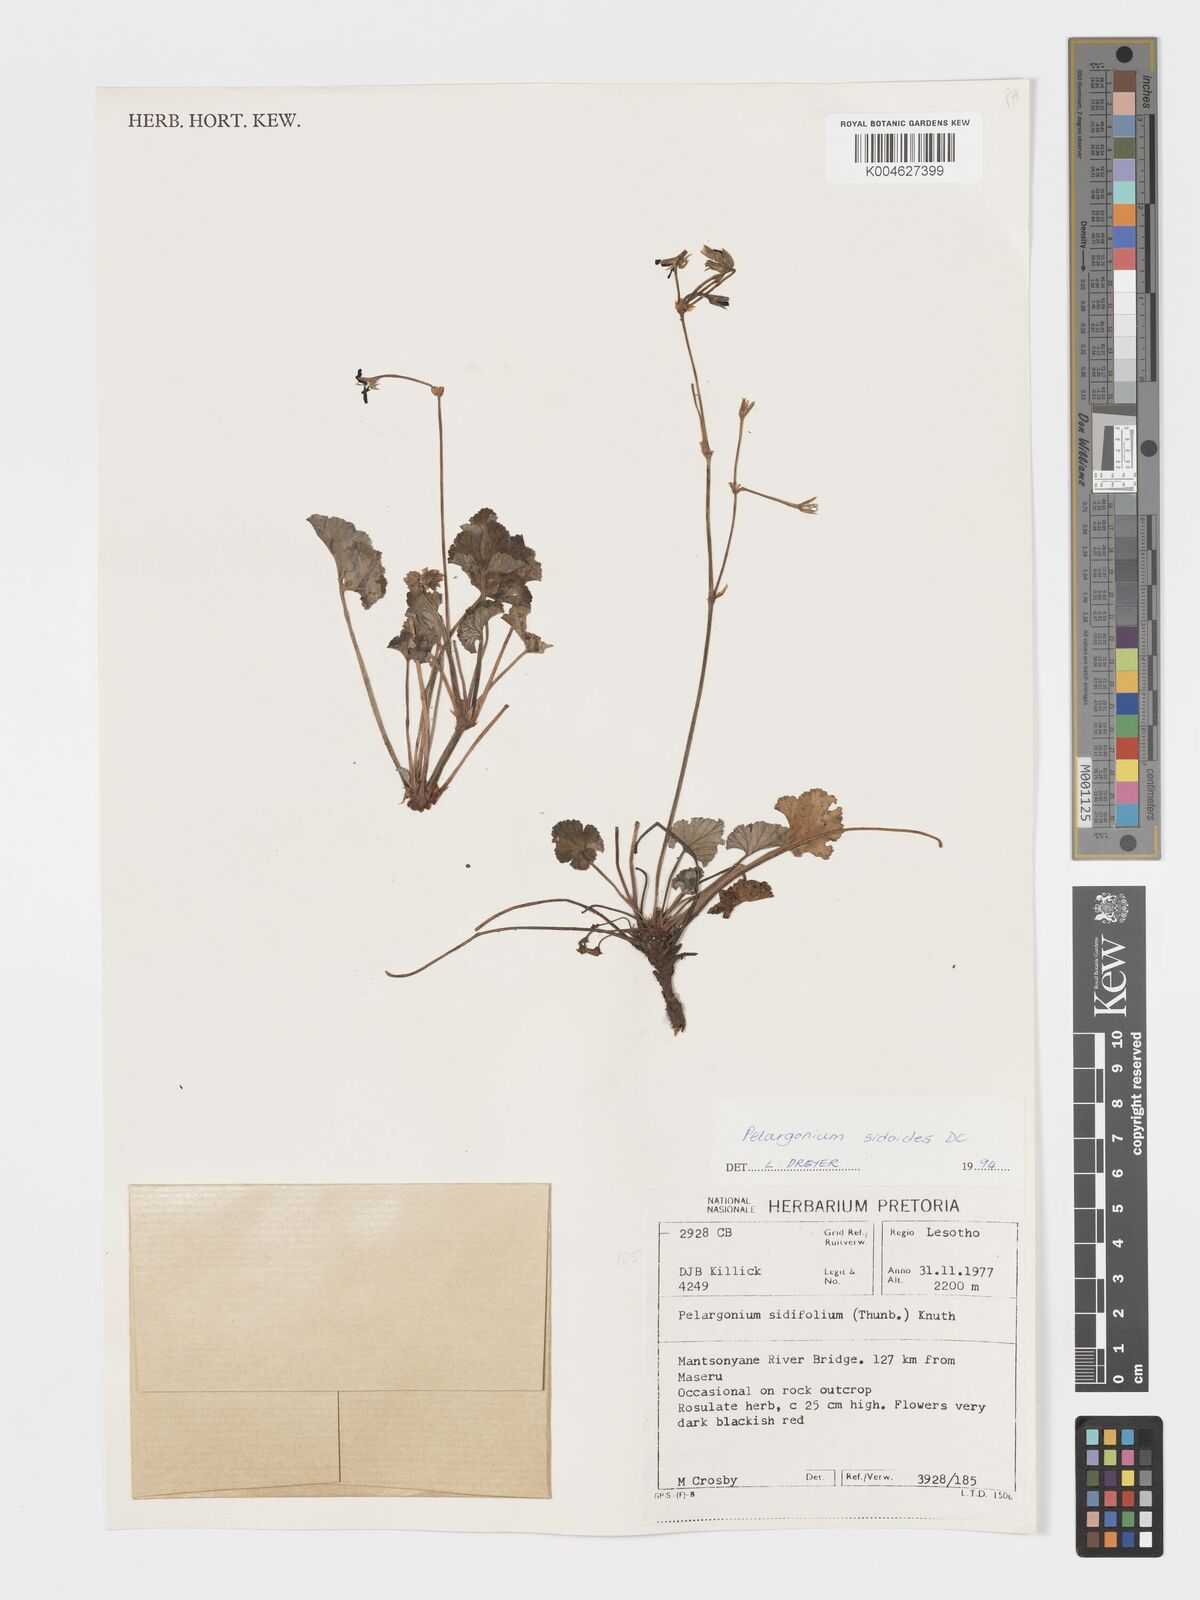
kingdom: Plantae
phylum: Tracheophyta
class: Magnoliopsida
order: Geraniales
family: Geraniaceae
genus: Pelargonium
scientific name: Pelargonium sidoides
